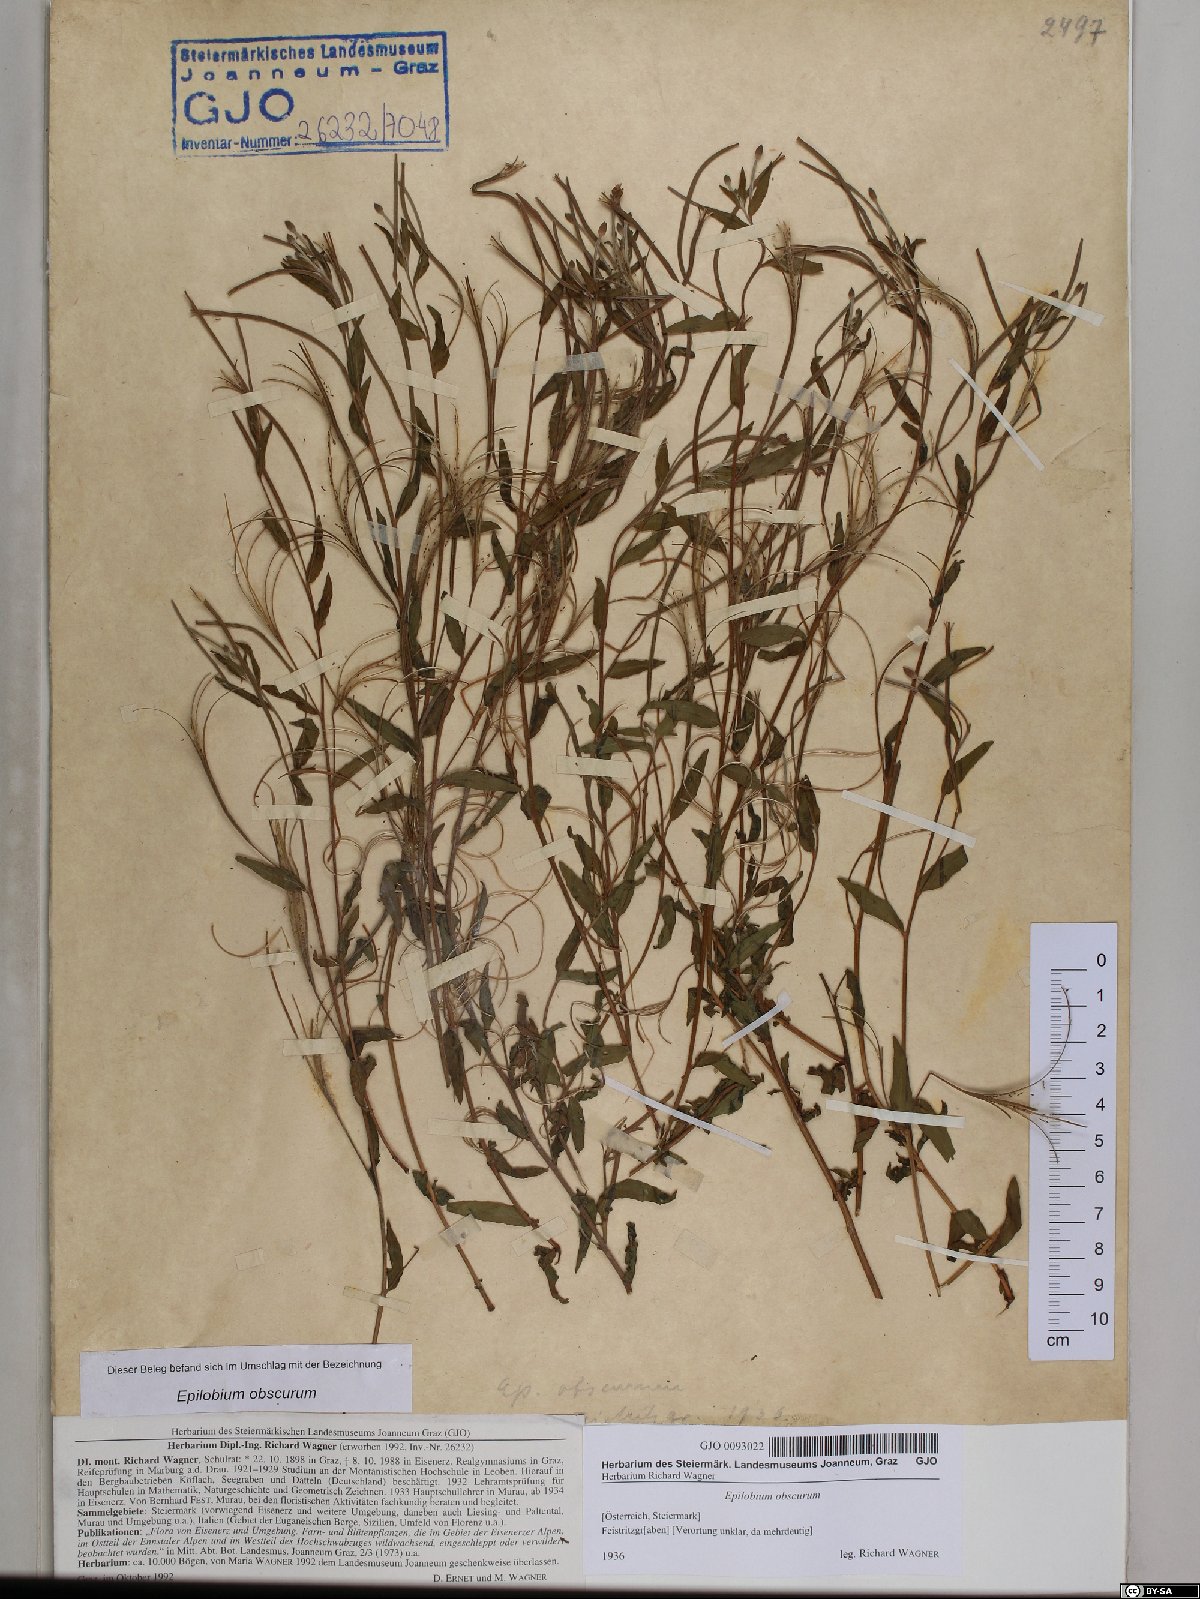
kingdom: Plantae
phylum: Tracheophyta
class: Magnoliopsida
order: Myrtales
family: Onagraceae
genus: Epilobium
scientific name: Epilobium obscurum
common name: Short-fruited willowherb
